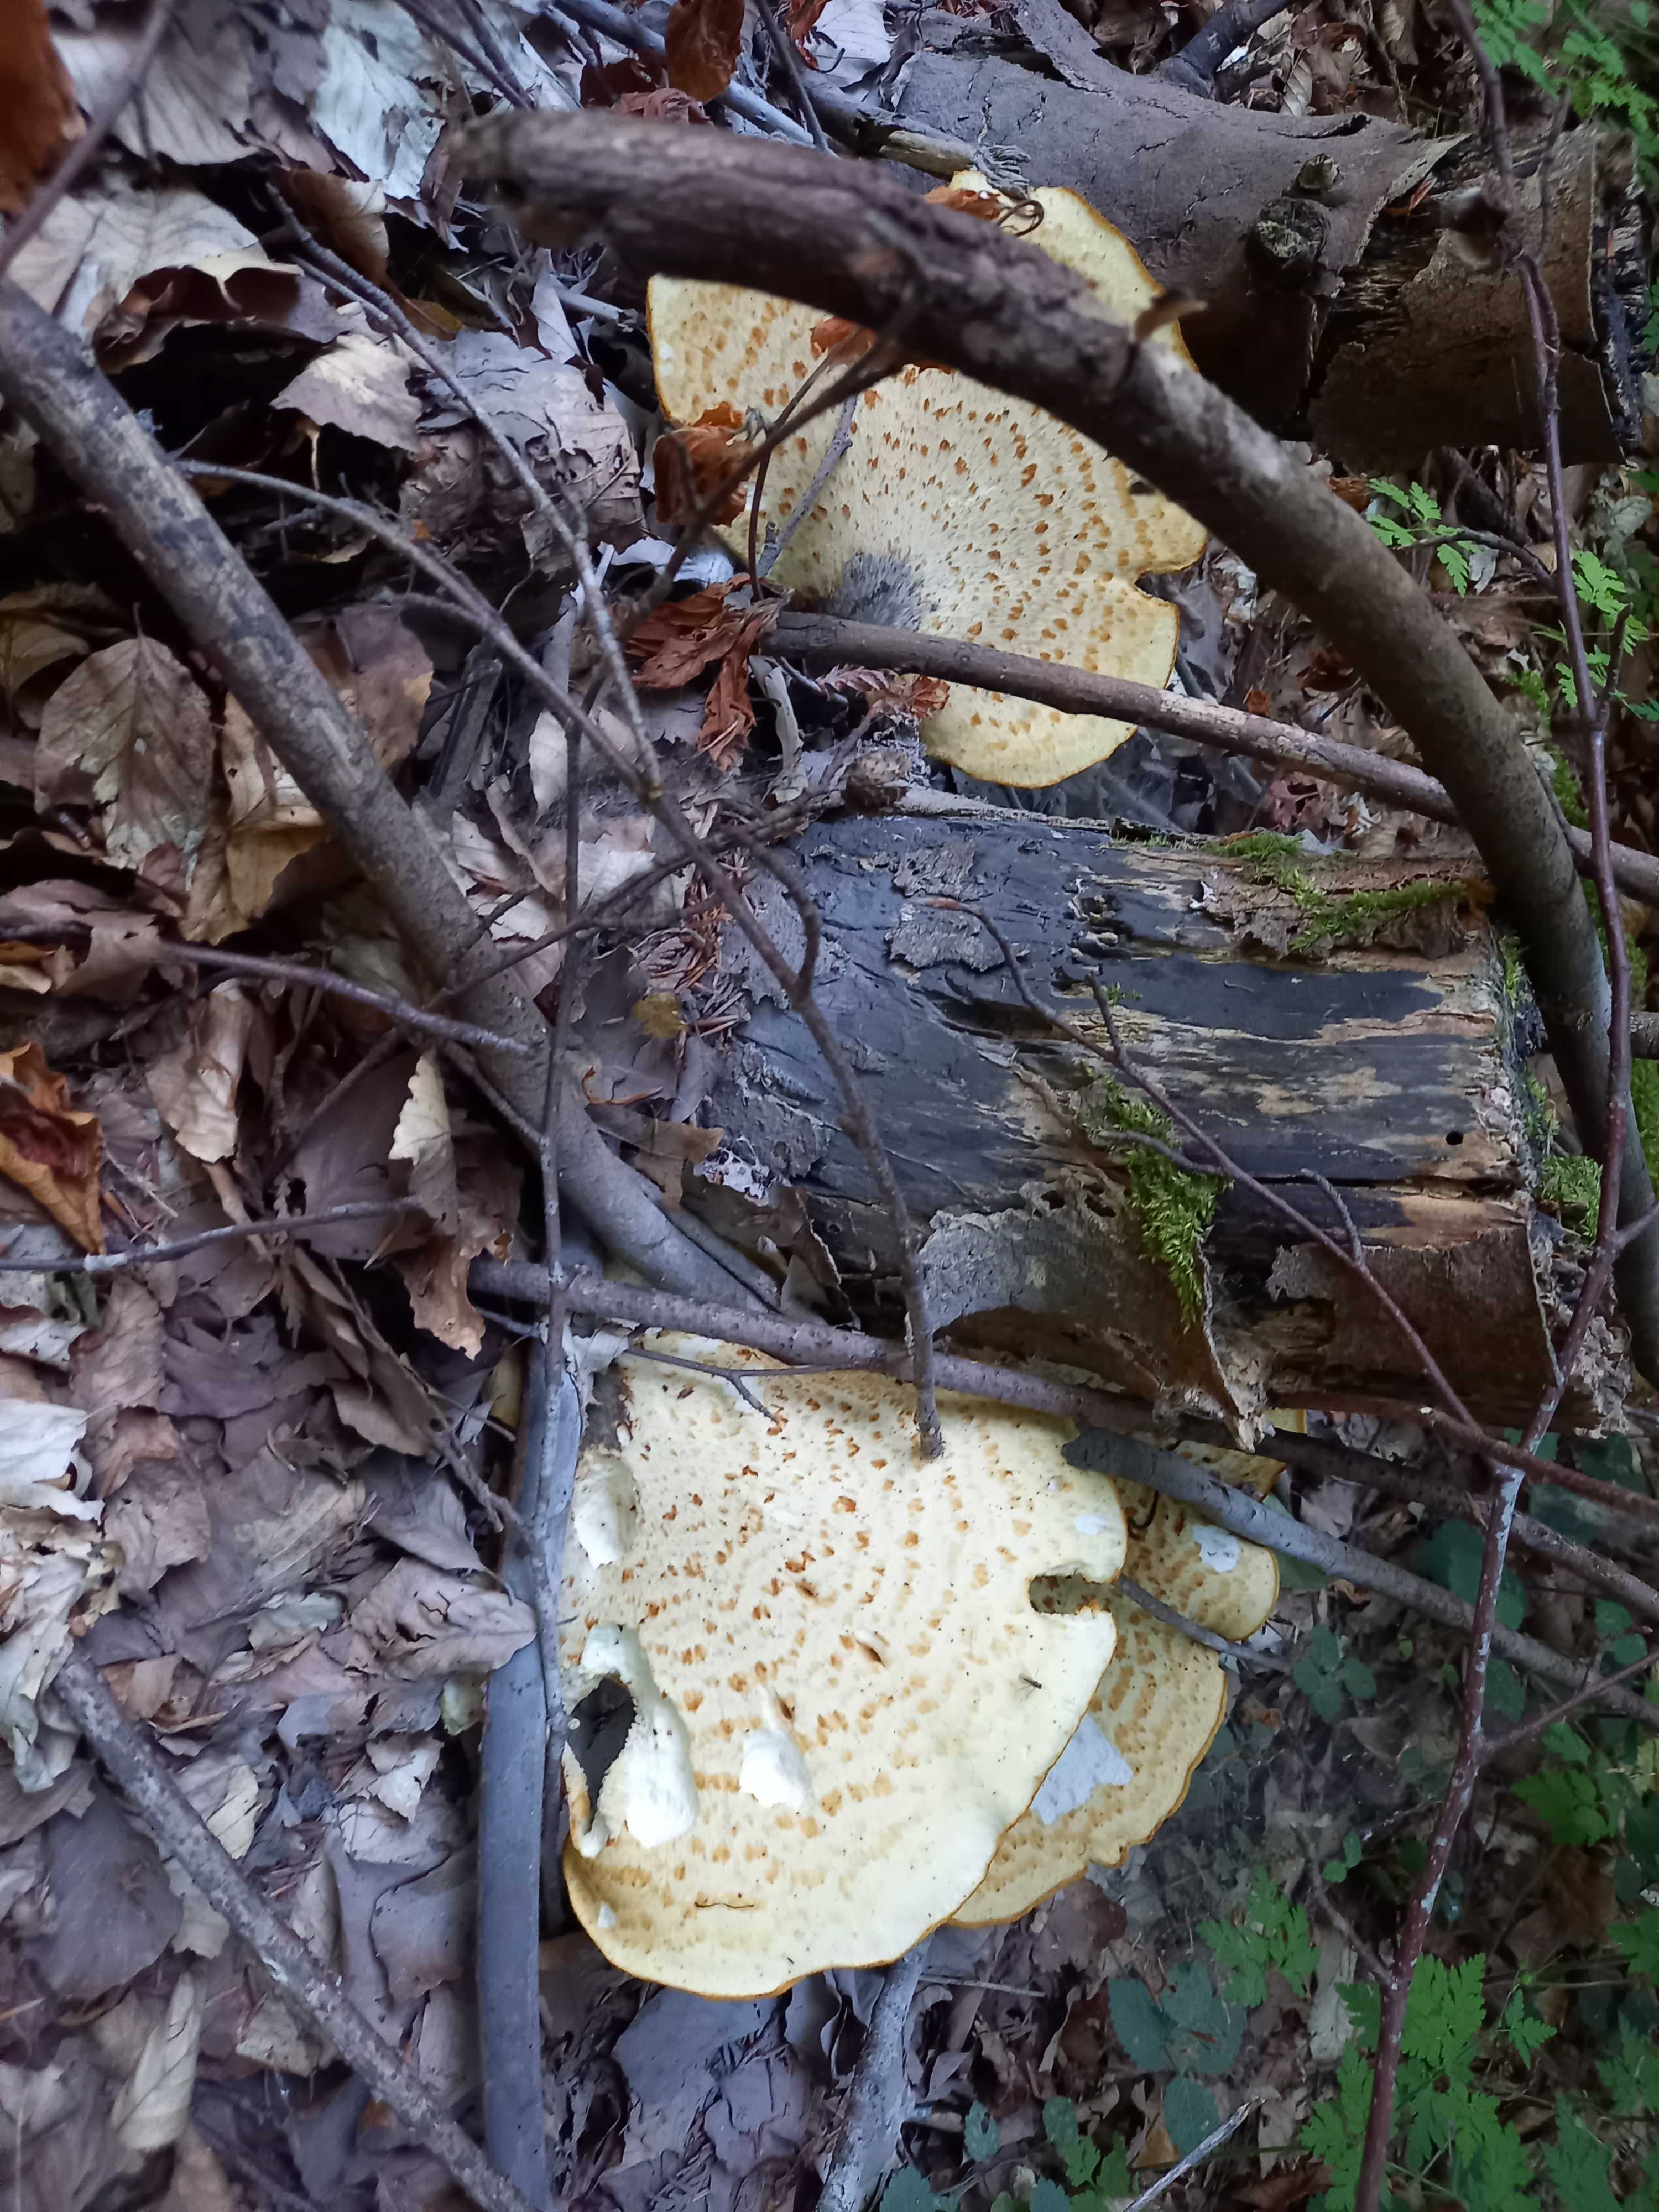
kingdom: Fungi
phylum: Basidiomycota
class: Agaricomycetes
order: Polyporales
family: Polyporaceae
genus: Cerioporus
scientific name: Cerioporus squamosus
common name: skællet stilkporesvamp
